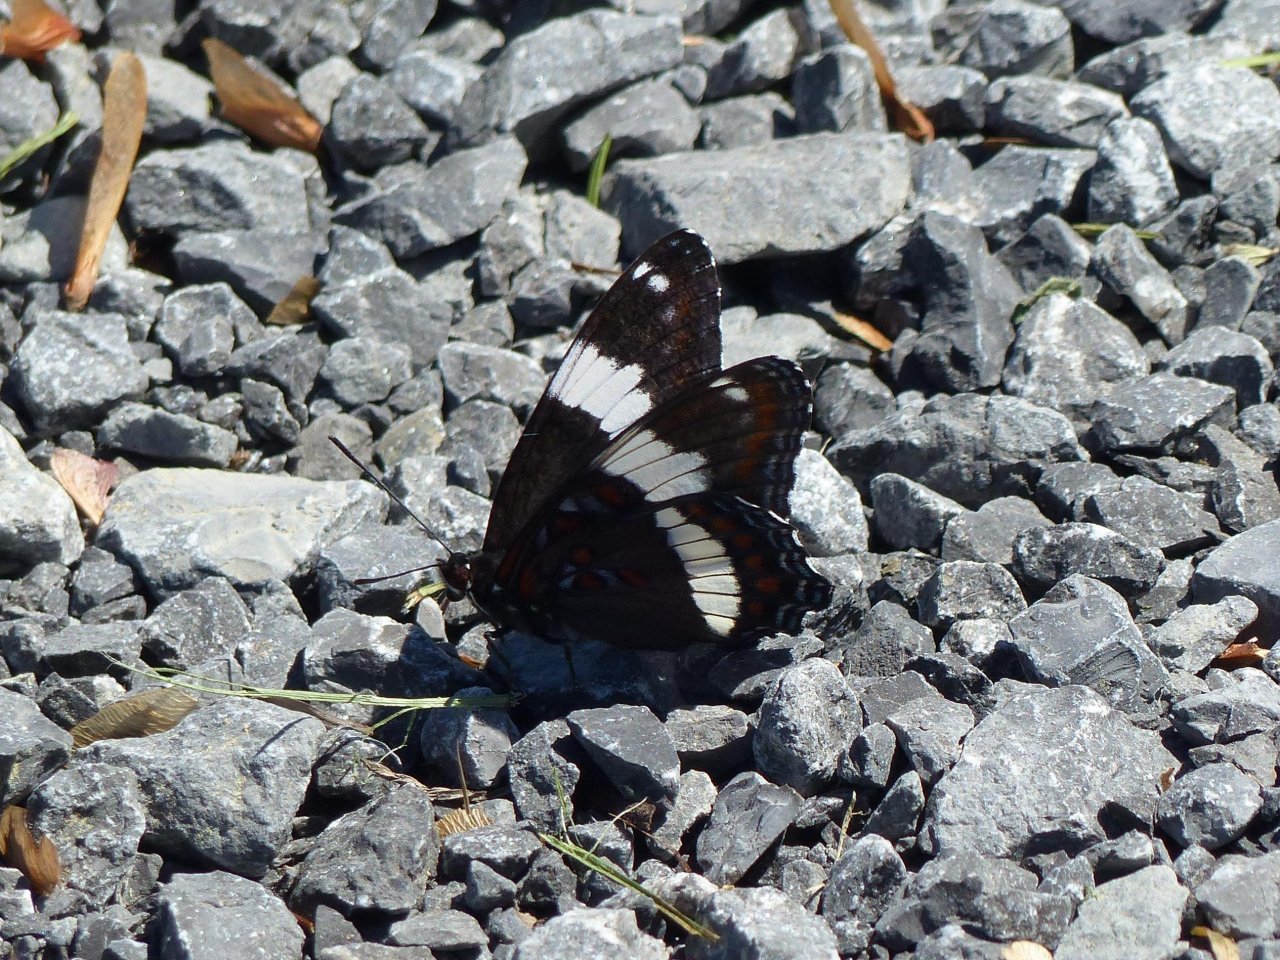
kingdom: Animalia
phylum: Arthropoda
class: Insecta
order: Lepidoptera
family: Nymphalidae
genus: Limenitis
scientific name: Limenitis arthemis
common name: Red-spotted Admiral
